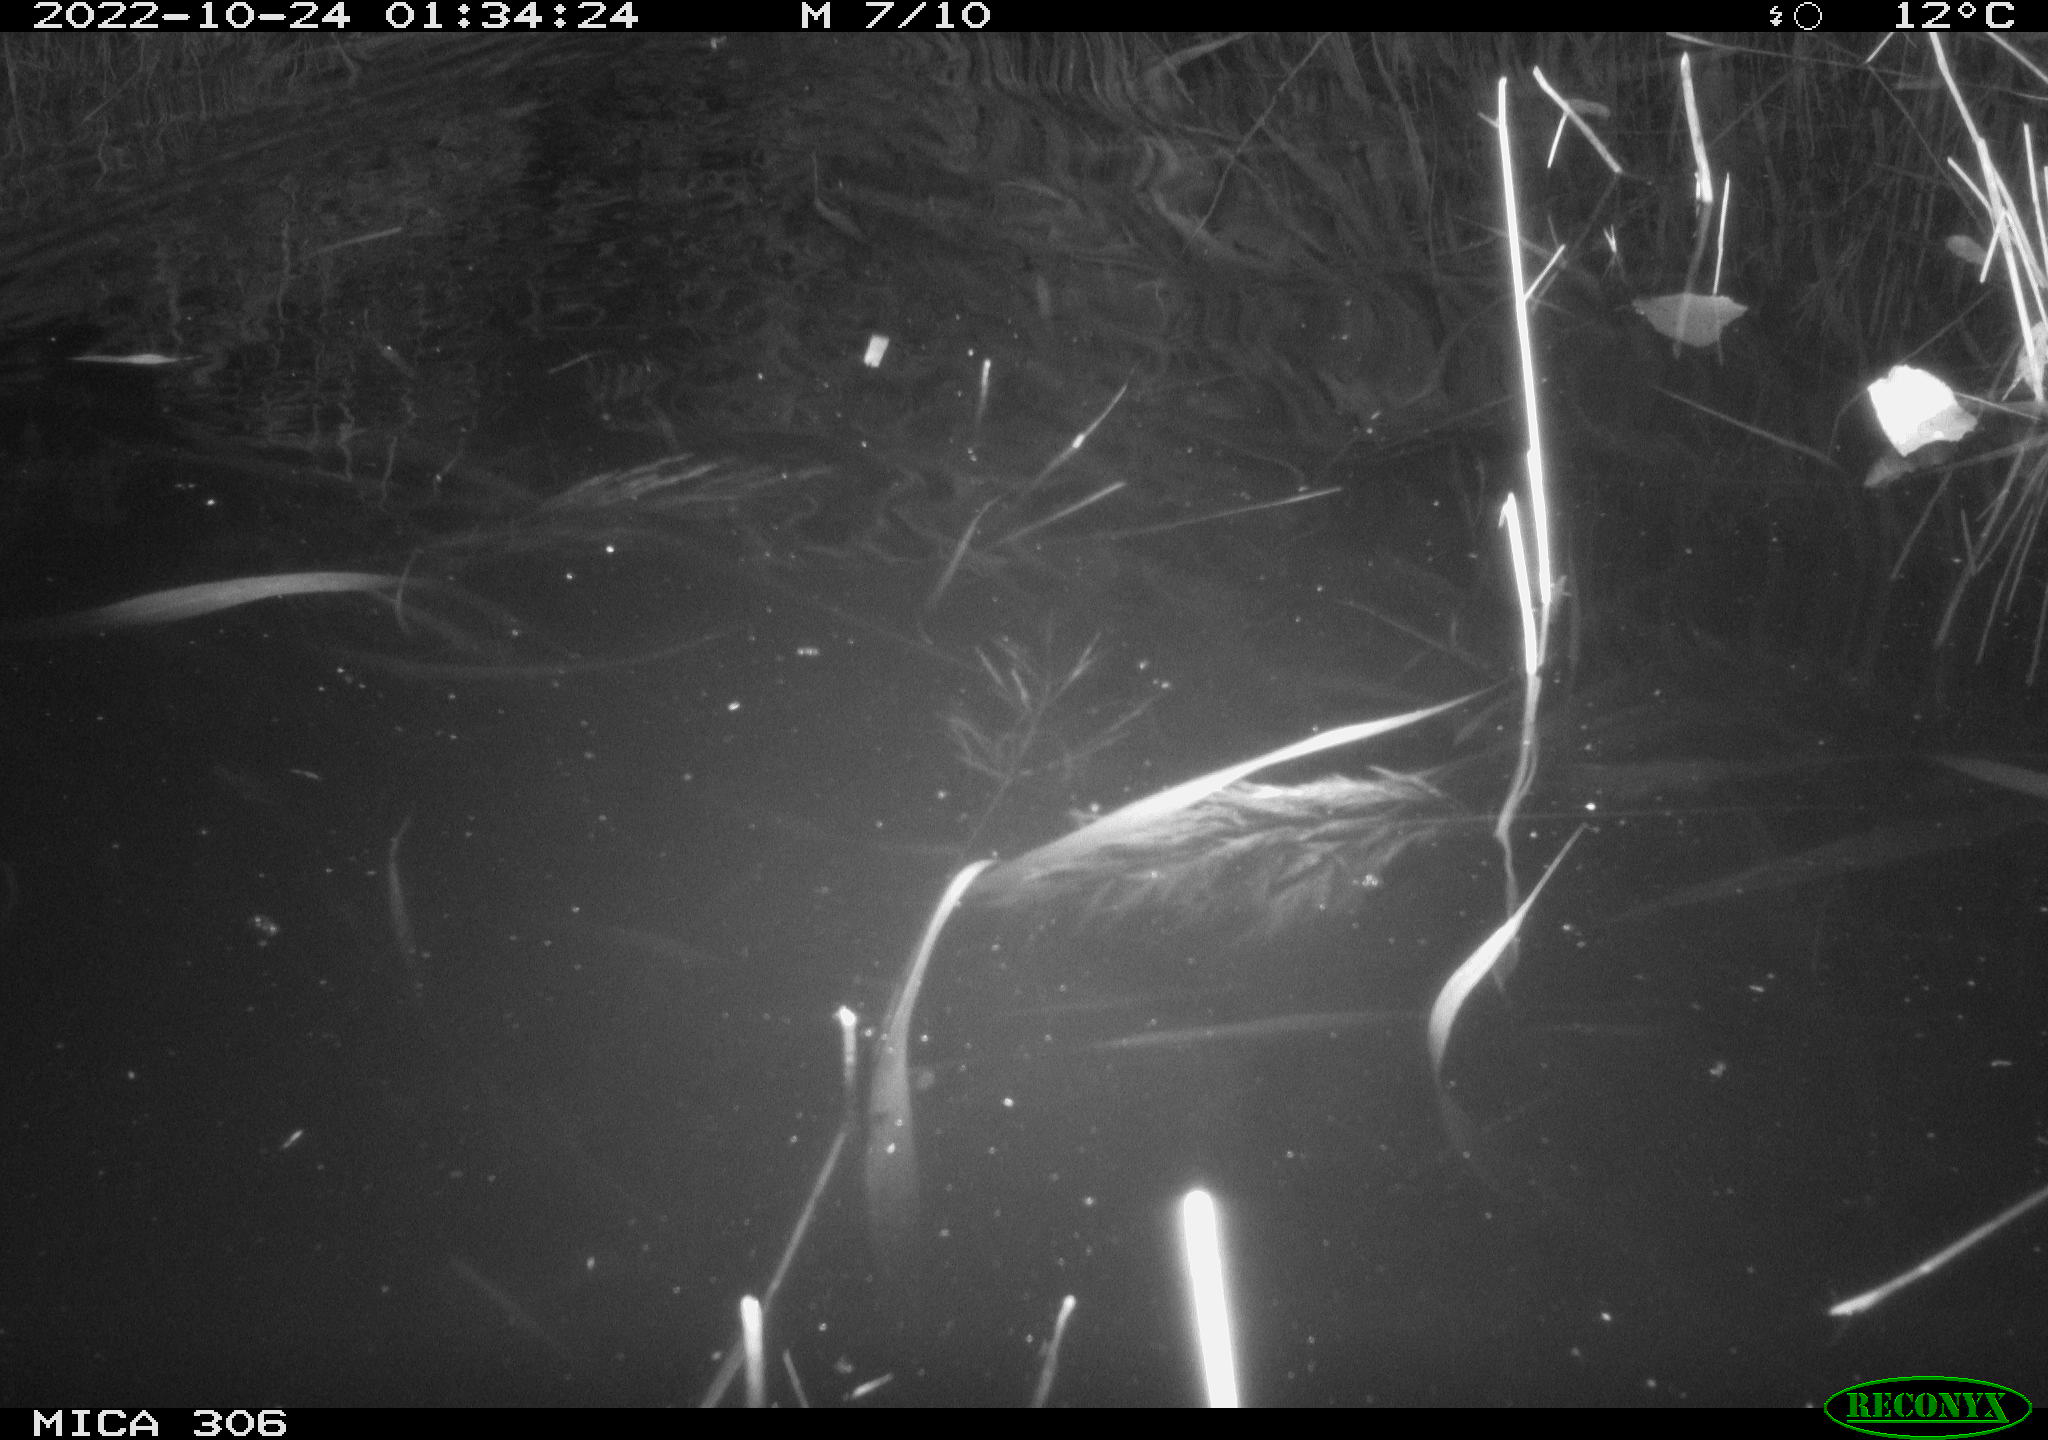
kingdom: Animalia
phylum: Chordata
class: Mammalia
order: Rodentia
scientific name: Rodentia
